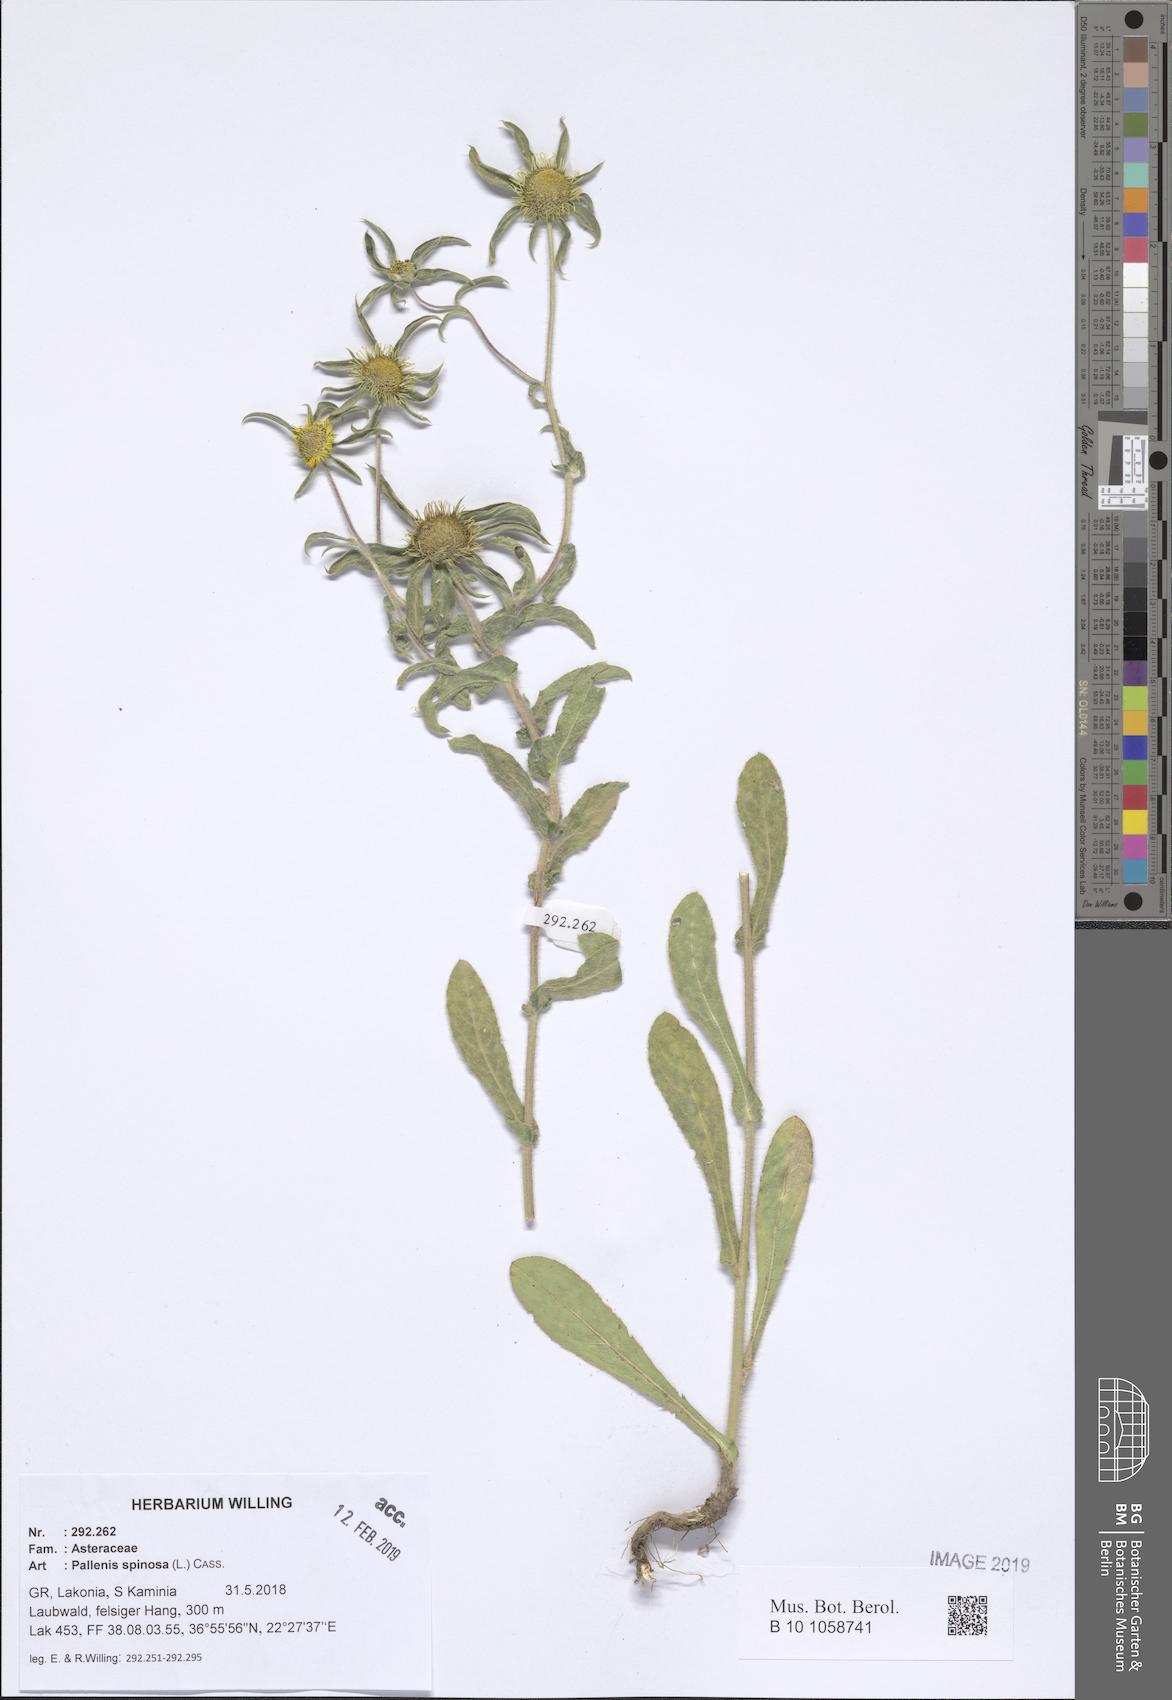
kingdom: Plantae
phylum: Tracheophyta
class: Magnoliopsida
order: Asterales
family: Asteraceae
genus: Pallenis
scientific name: Pallenis spinosa
